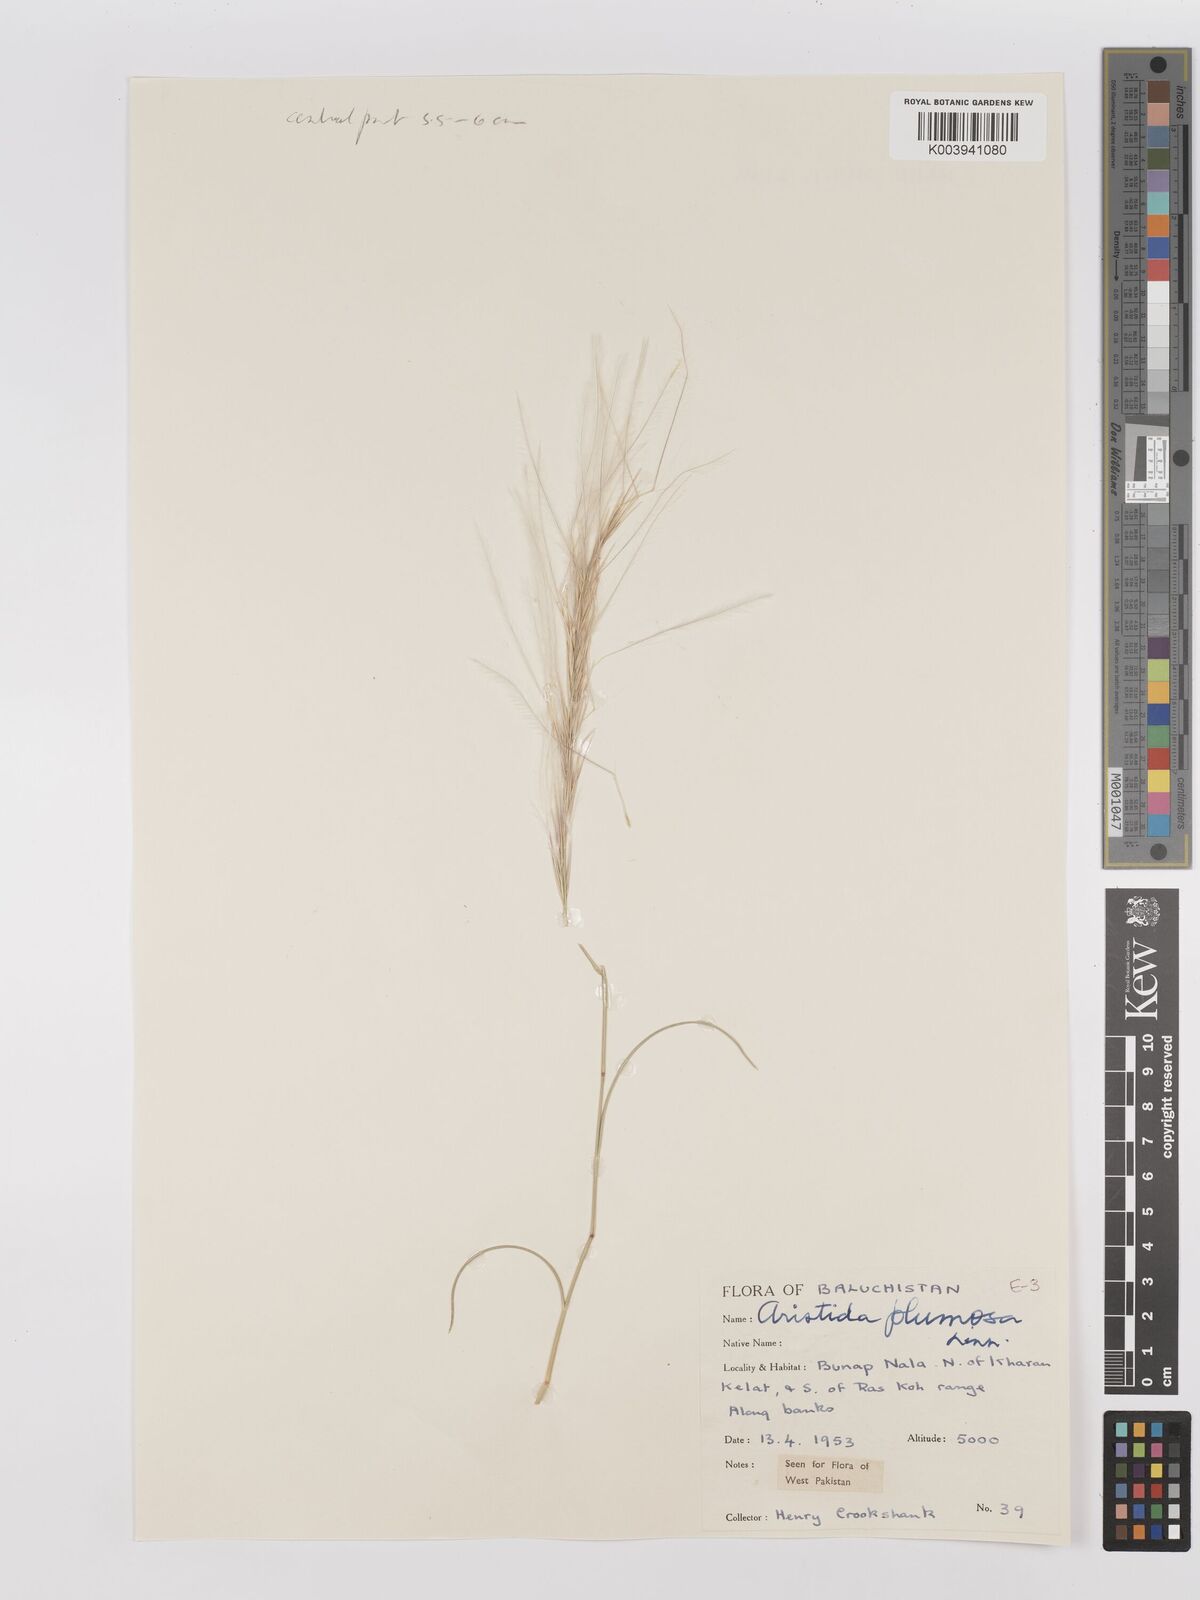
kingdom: Plantae
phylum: Tracheophyta
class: Liliopsida
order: Poales
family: Poaceae
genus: Stipagrostis
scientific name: Stipagrostis plumosa
